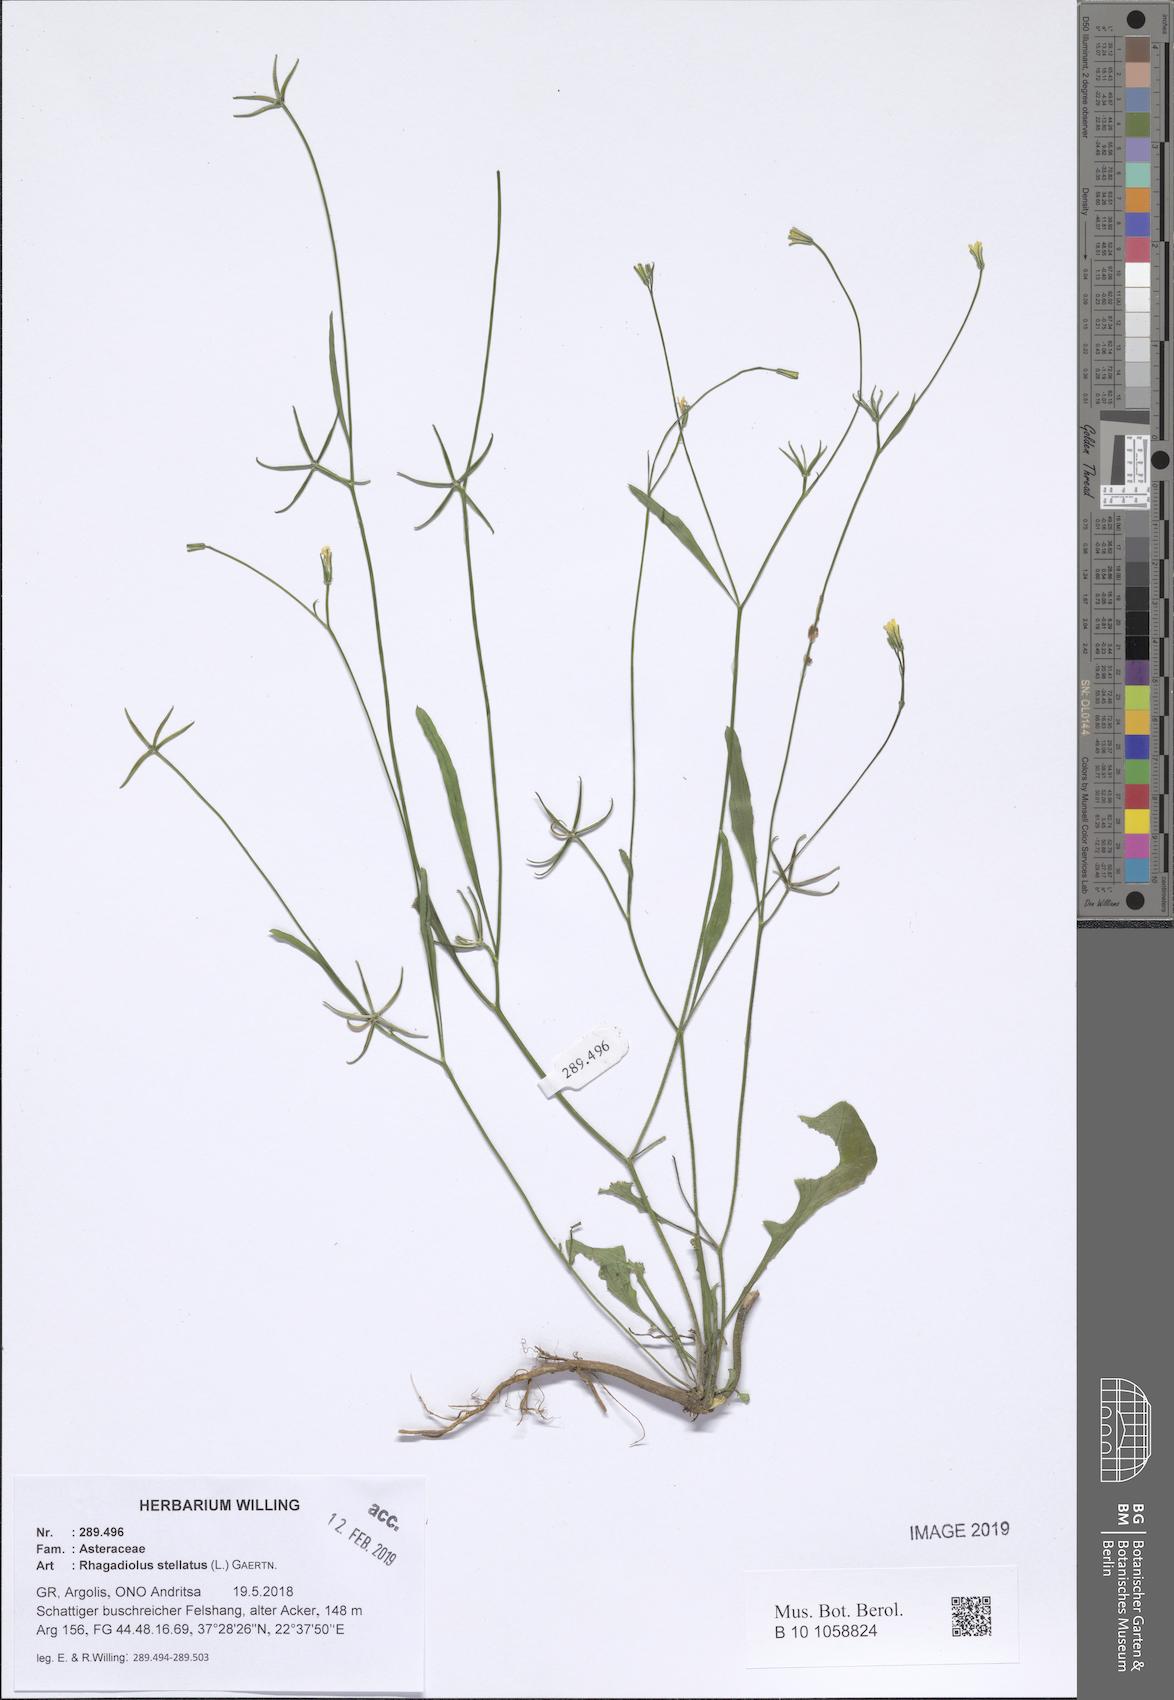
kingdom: Plantae
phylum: Tracheophyta
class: Magnoliopsida
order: Asterales
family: Asteraceae
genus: Rhagadiolus
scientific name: Rhagadiolus stellatus
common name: Star hawkbit
